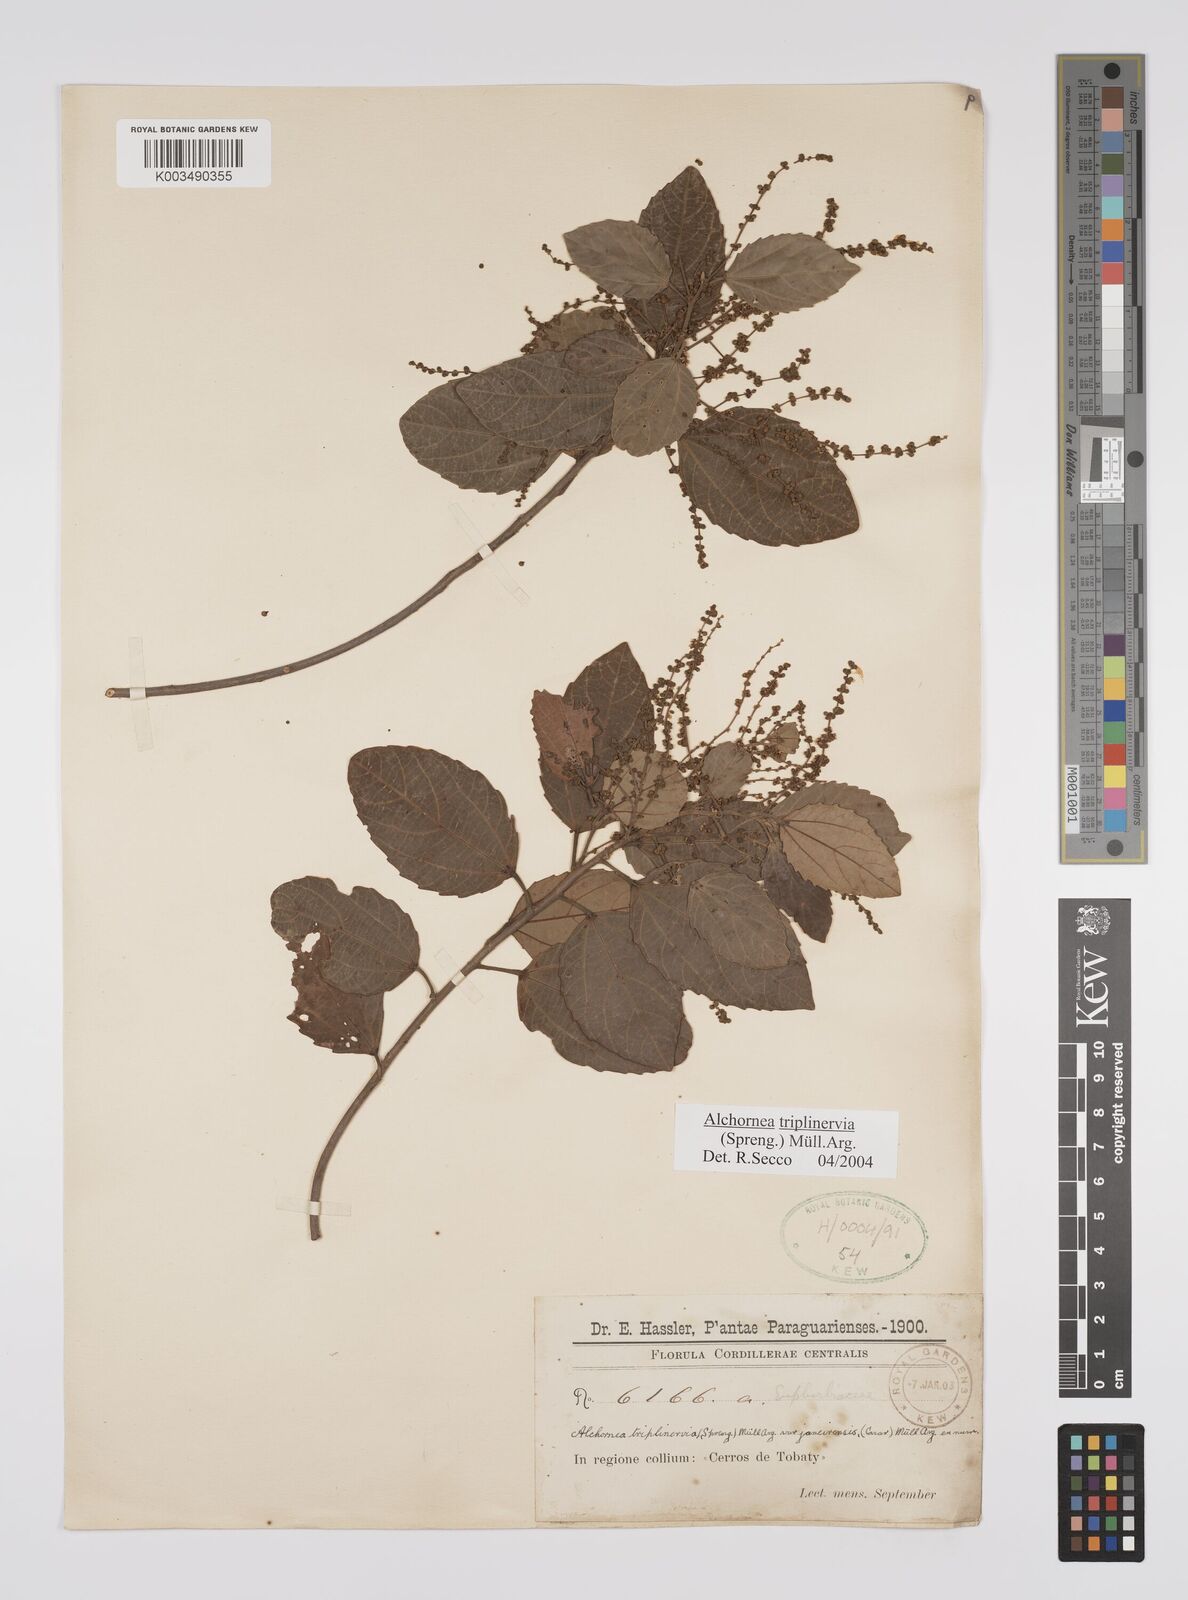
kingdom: Plantae
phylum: Tracheophyta
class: Magnoliopsida
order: Malpighiales
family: Euphorbiaceae
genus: Alchornea
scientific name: Alchornea triplinervia
